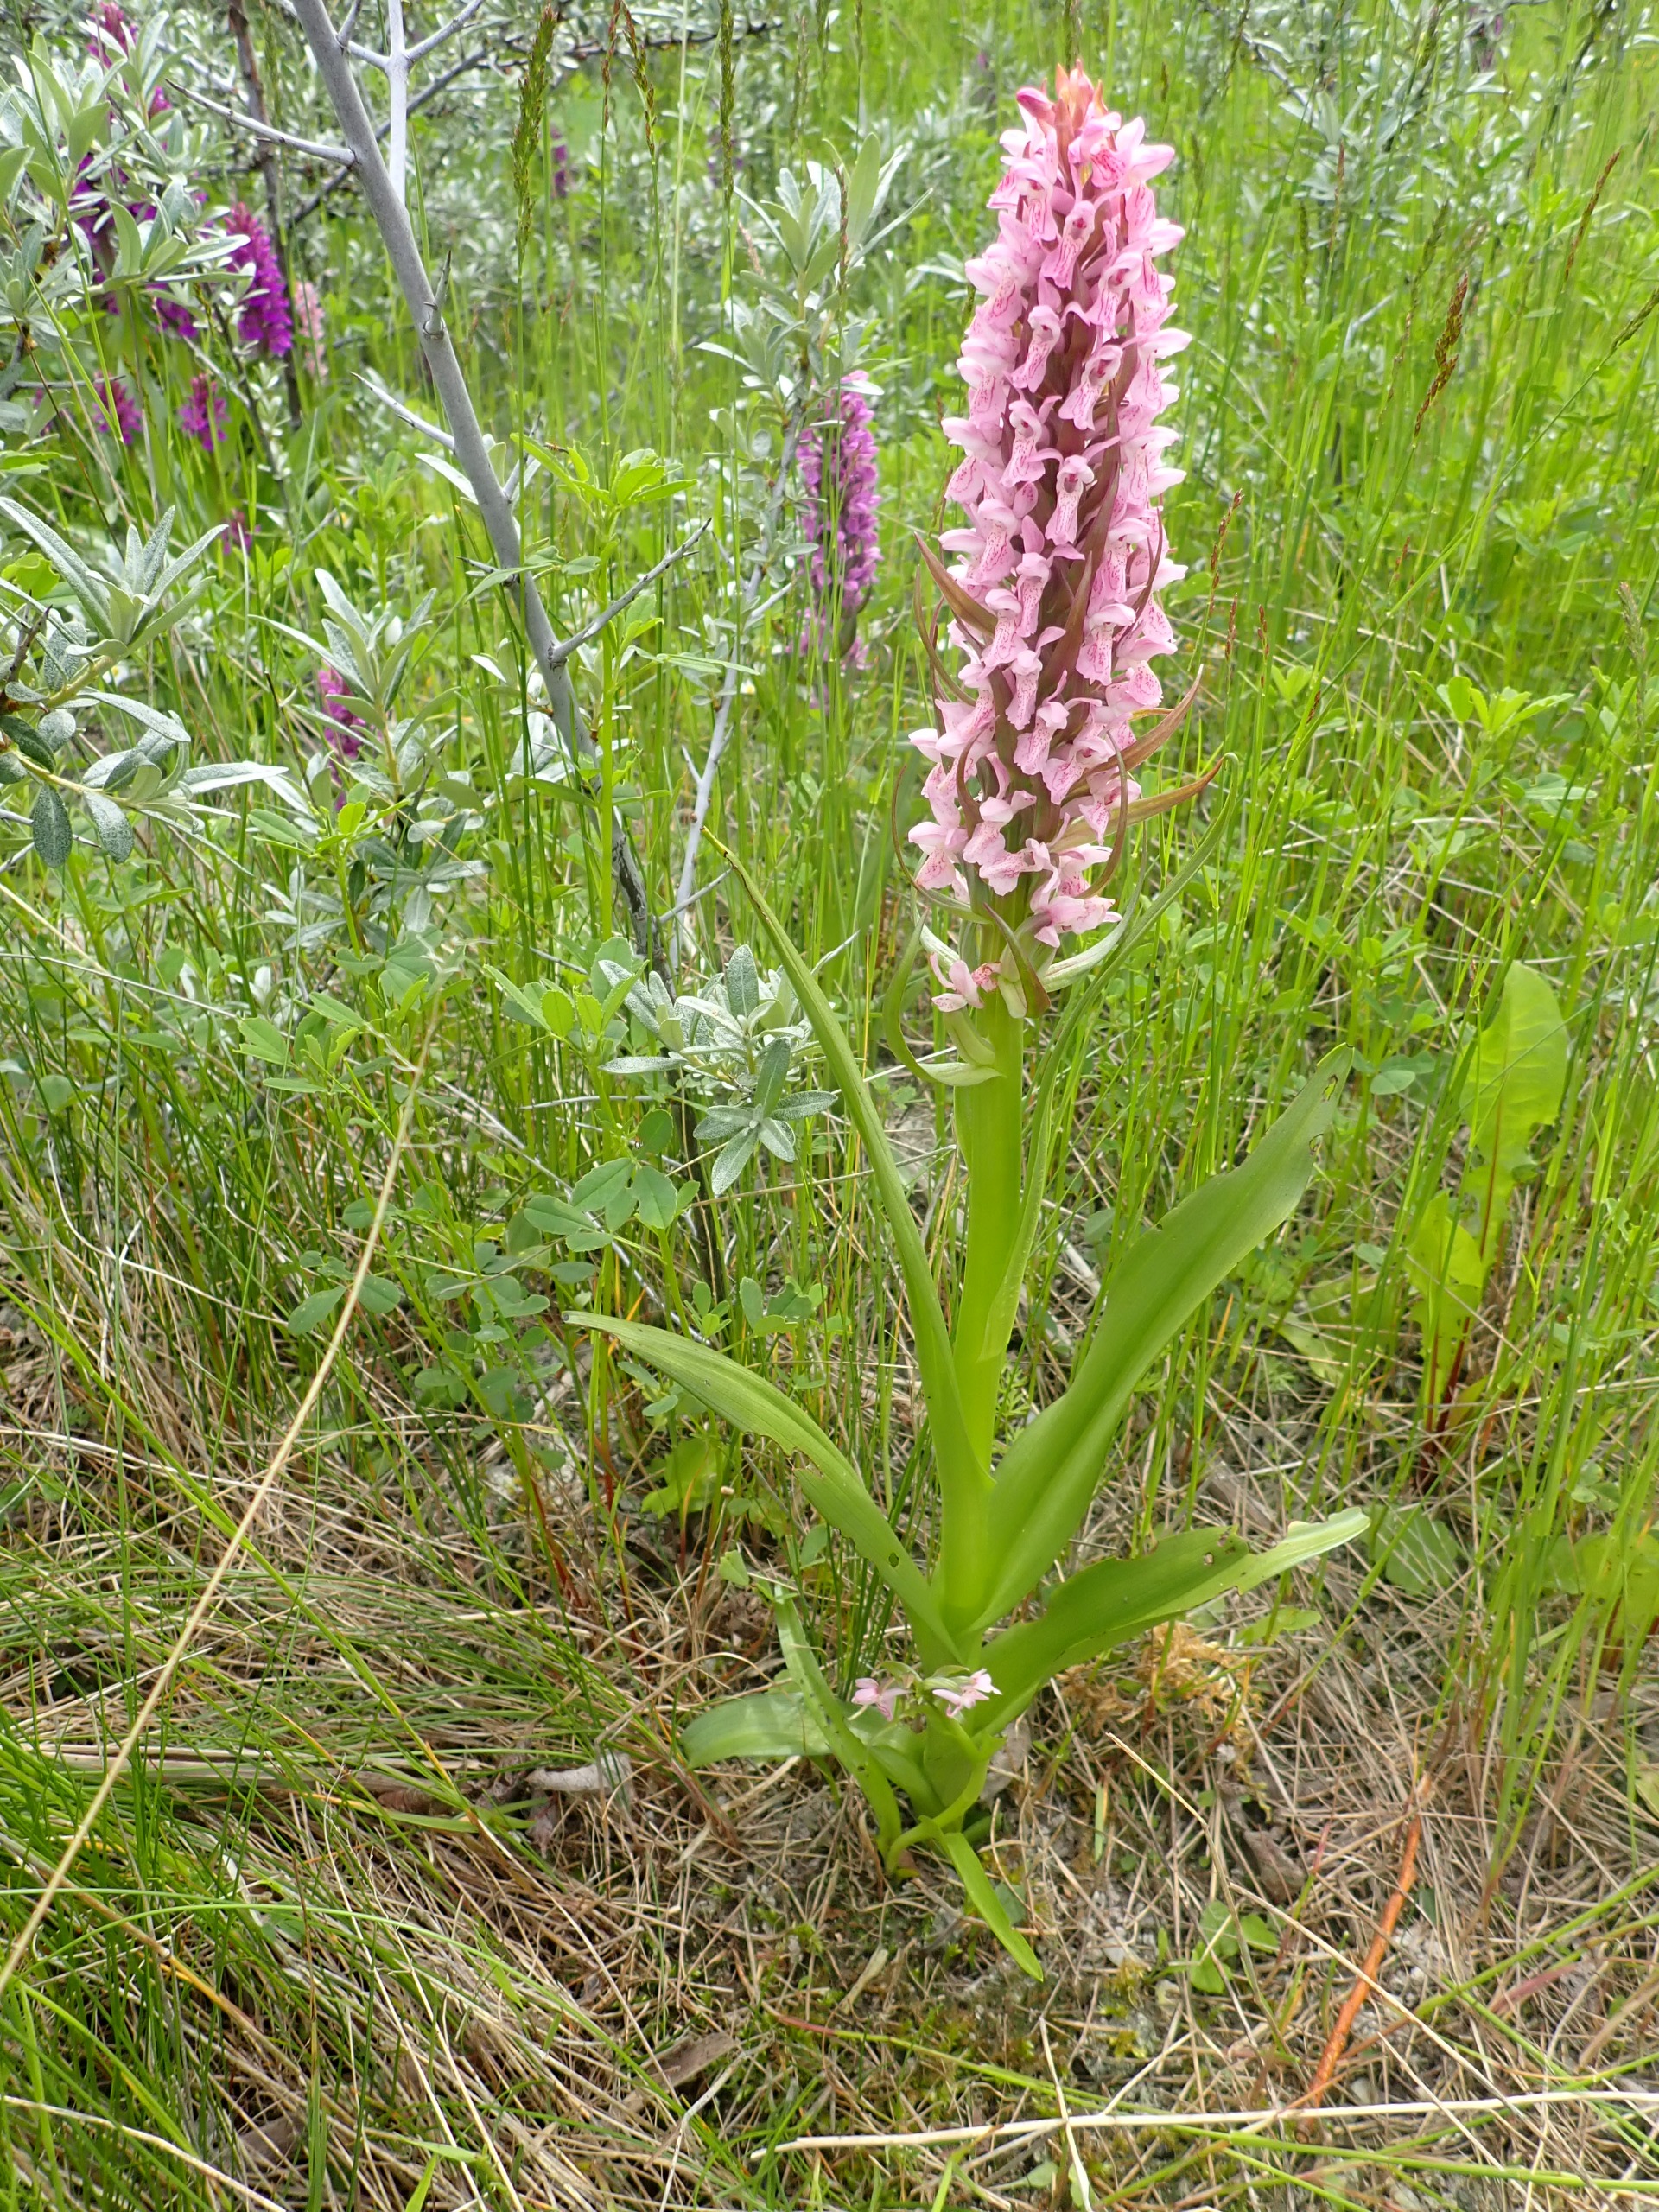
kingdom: Plantae
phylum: Tracheophyta
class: Liliopsida
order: Asparagales
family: Orchidaceae
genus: Dactylorhiza
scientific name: Dactylorhiza incarnata
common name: Kødfarvet gøgeurt
